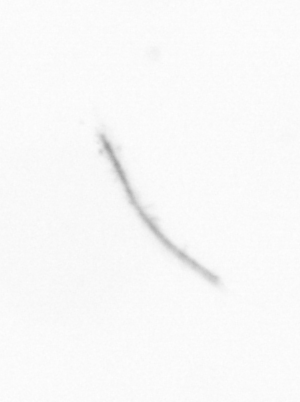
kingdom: Chromista
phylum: Ochrophyta
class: Bacillariophyceae
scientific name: Bacillariophyceae
